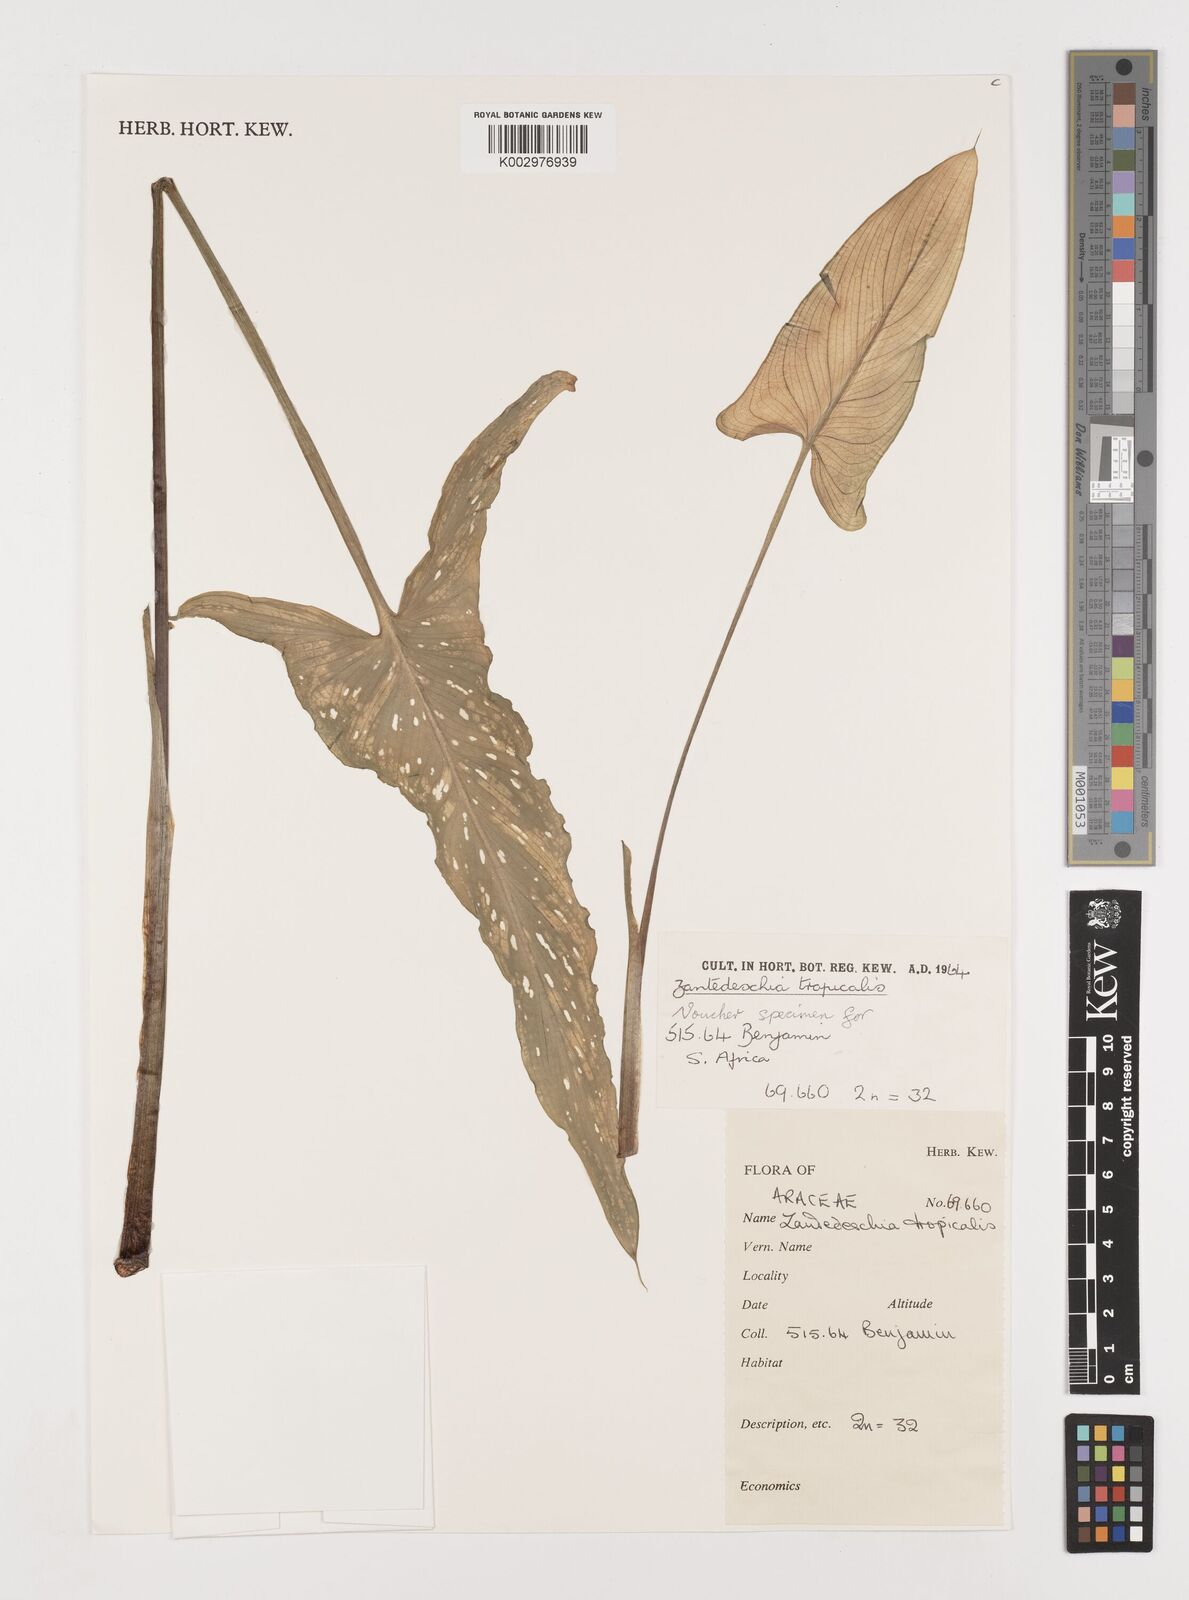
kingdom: Plantae
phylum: Tracheophyta
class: Liliopsida
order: Alismatales
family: Araceae
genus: Zantedeschia
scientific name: Zantedeschia albomaculata
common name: Spotted calla lily
